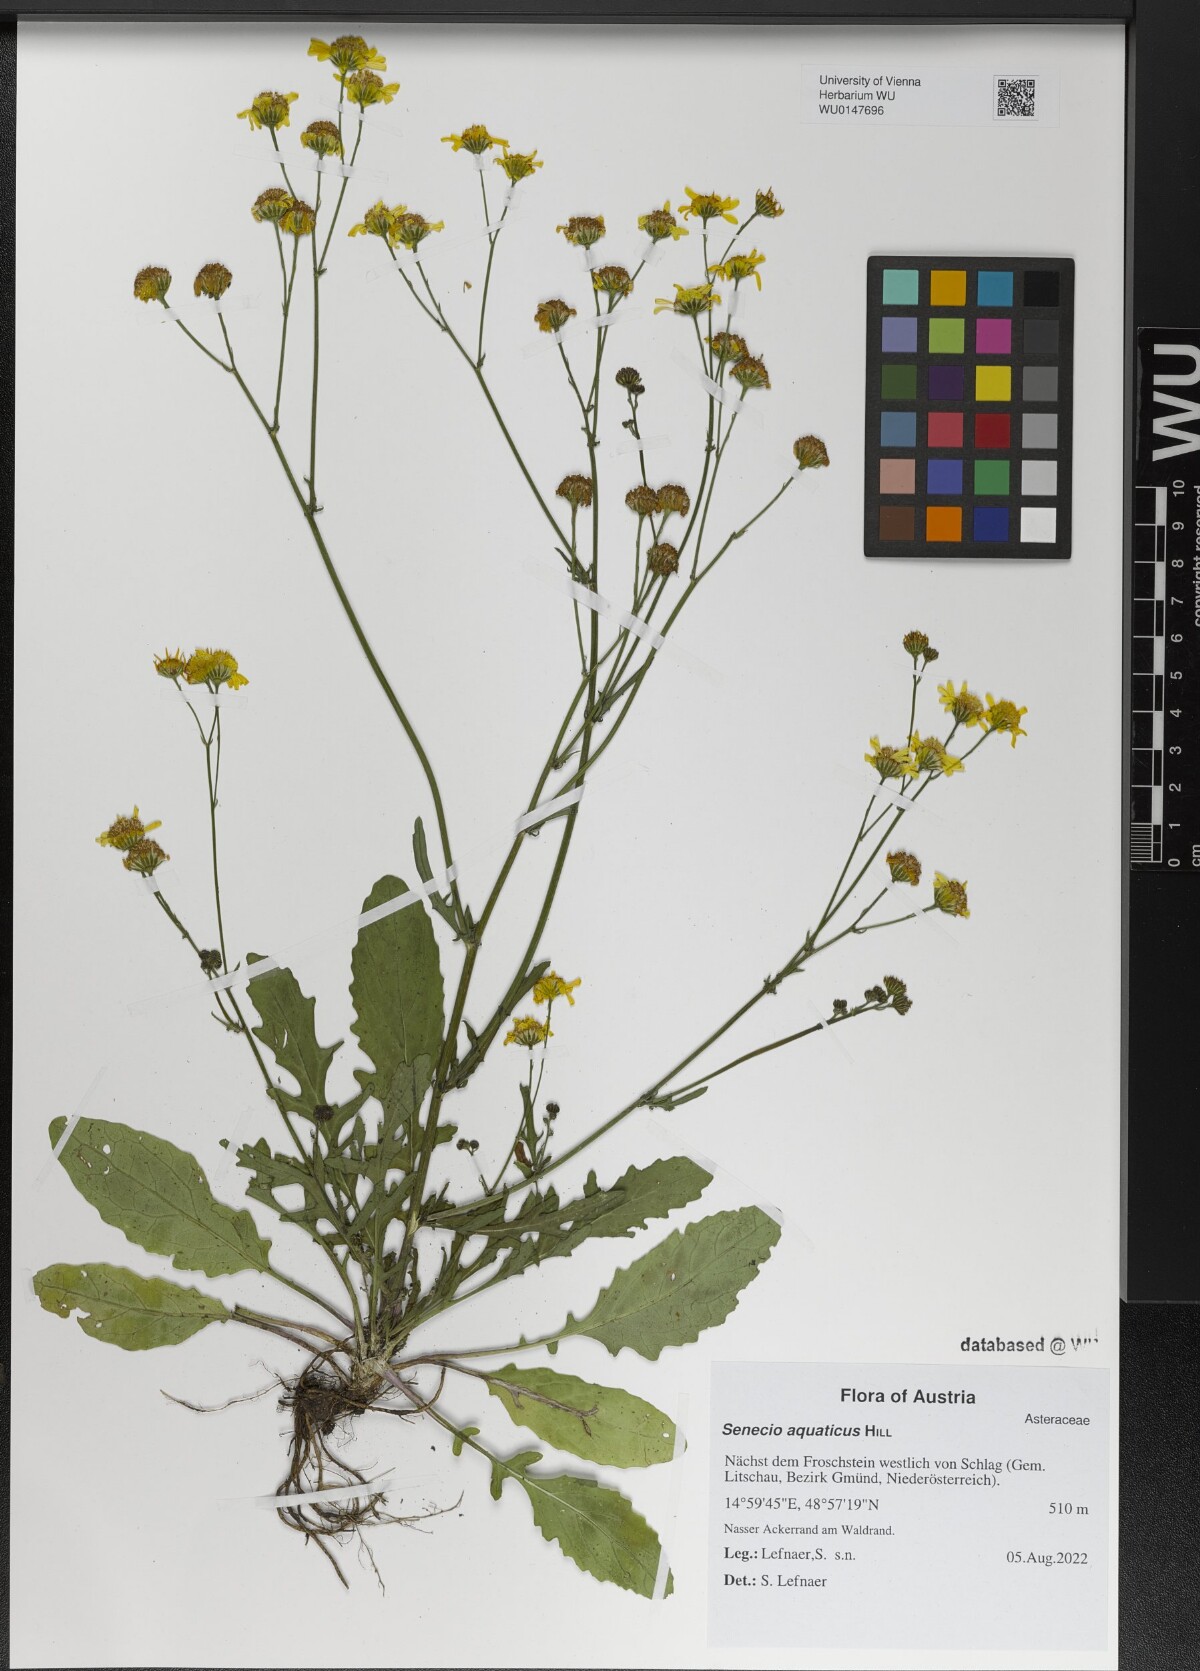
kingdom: Plantae
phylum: Tracheophyta
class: Magnoliopsida
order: Asterales
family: Asteraceae
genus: Jacobaea
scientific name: Jacobaea aquatica
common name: Water ragwort
